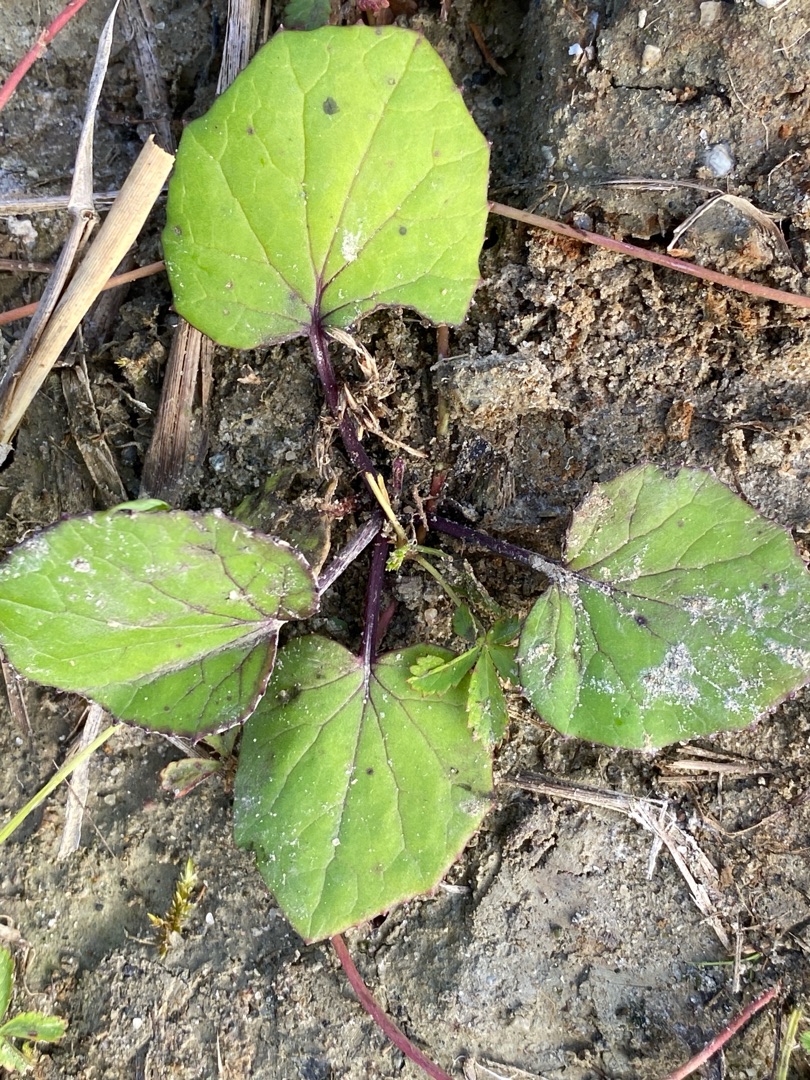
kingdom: Plantae
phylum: Tracheophyta
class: Magnoliopsida
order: Asterales
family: Asteraceae
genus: Tussilago
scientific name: Tussilago farfara
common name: Følfod
